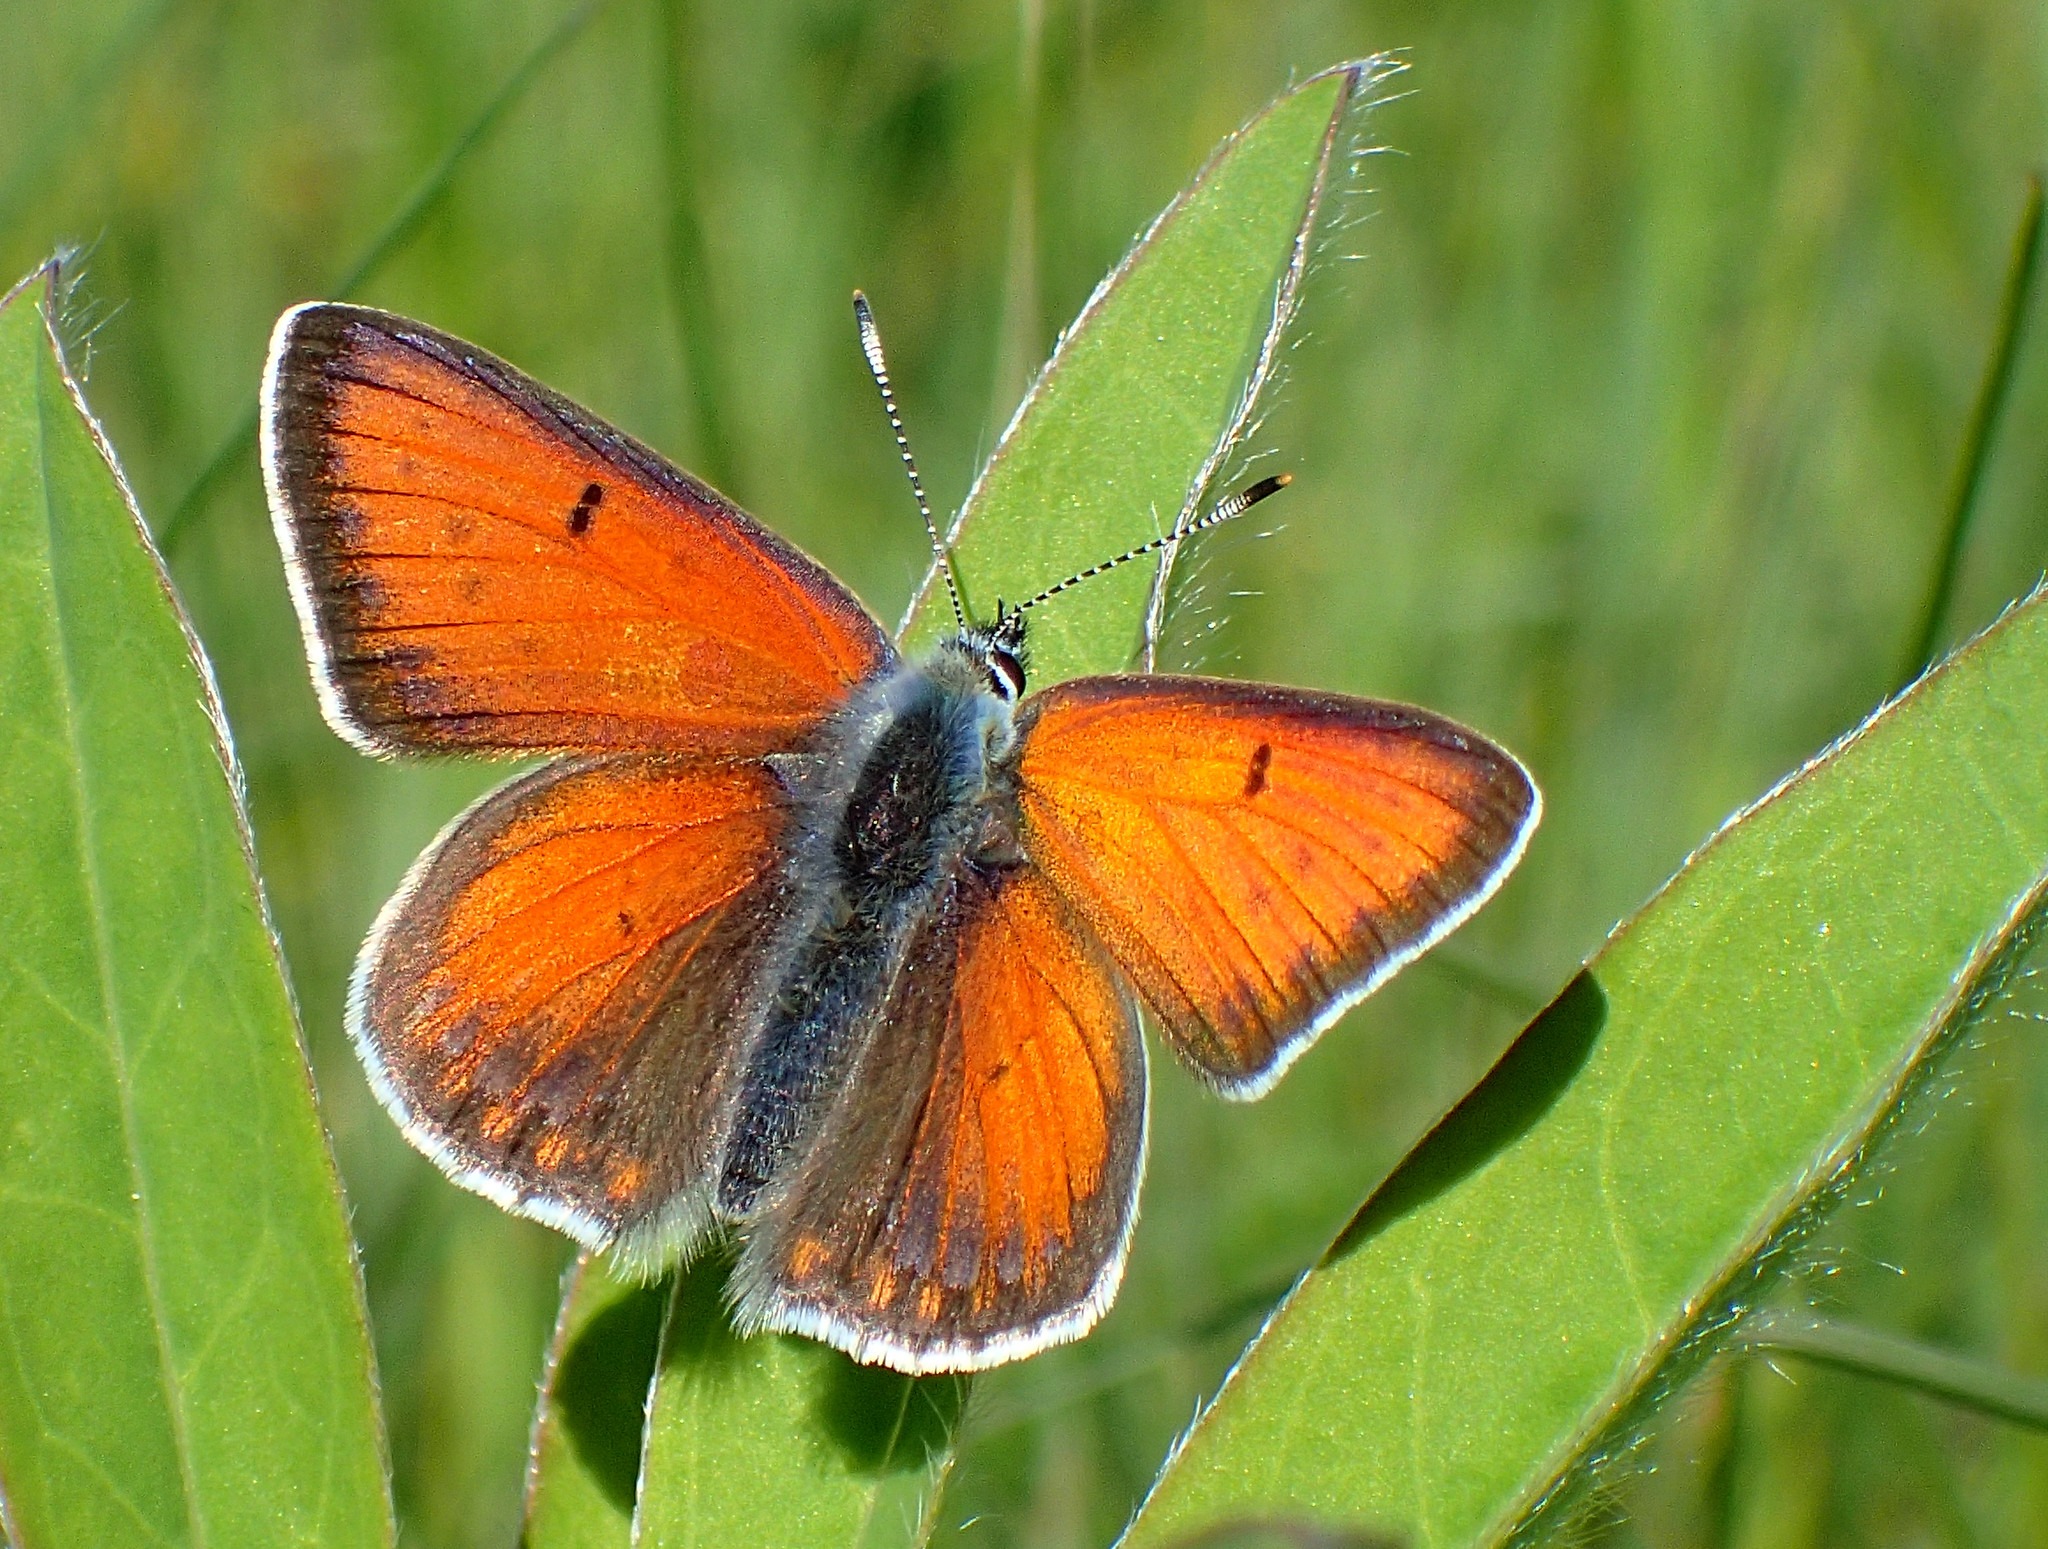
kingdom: Animalia
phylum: Arthropoda
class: Insecta
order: Lepidoptera
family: Lycaenidae
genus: Palaeochrysophanus
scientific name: Palaeochrysophanus hippothoe
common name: Violetrandet ildfugl
